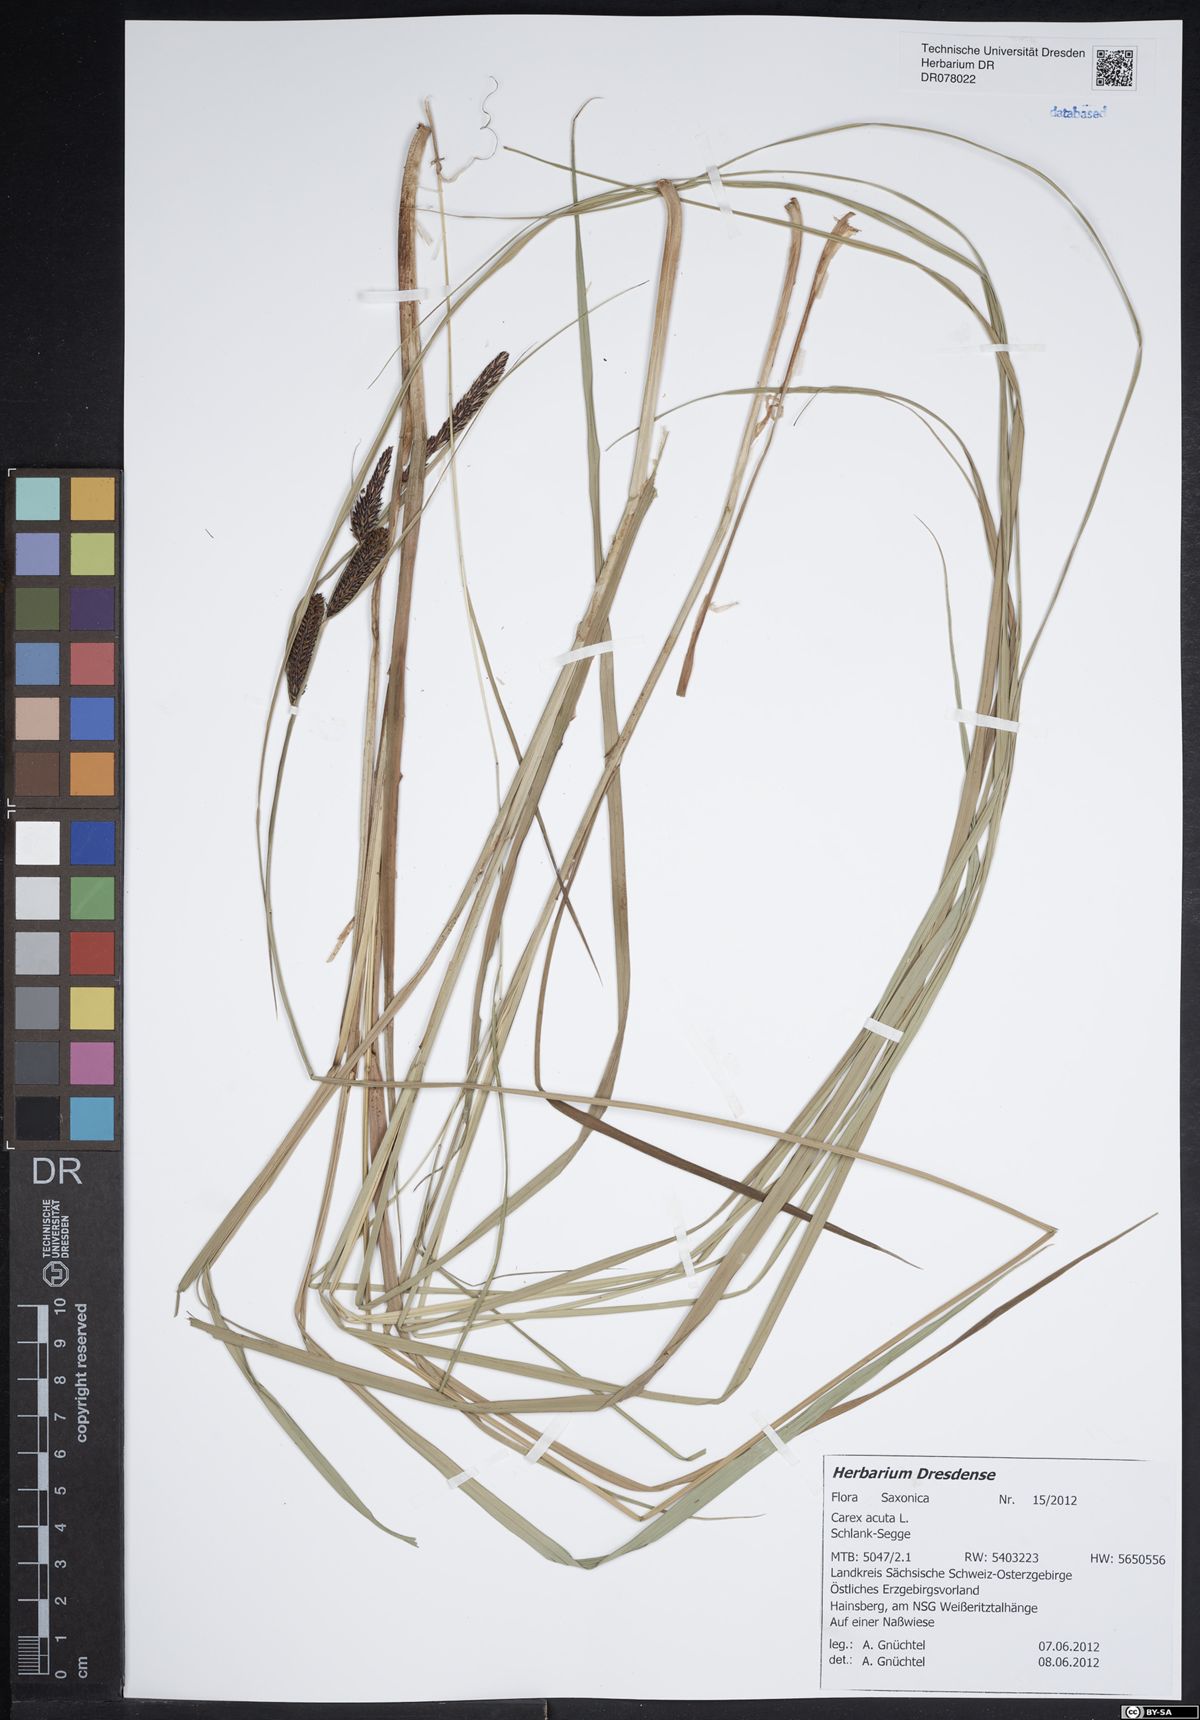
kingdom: Plantae
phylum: Tracheophyta
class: Liliopsida
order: Poales
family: Cyperaceae
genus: Carex
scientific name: Carex acuta
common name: Slender tufted-sedge
